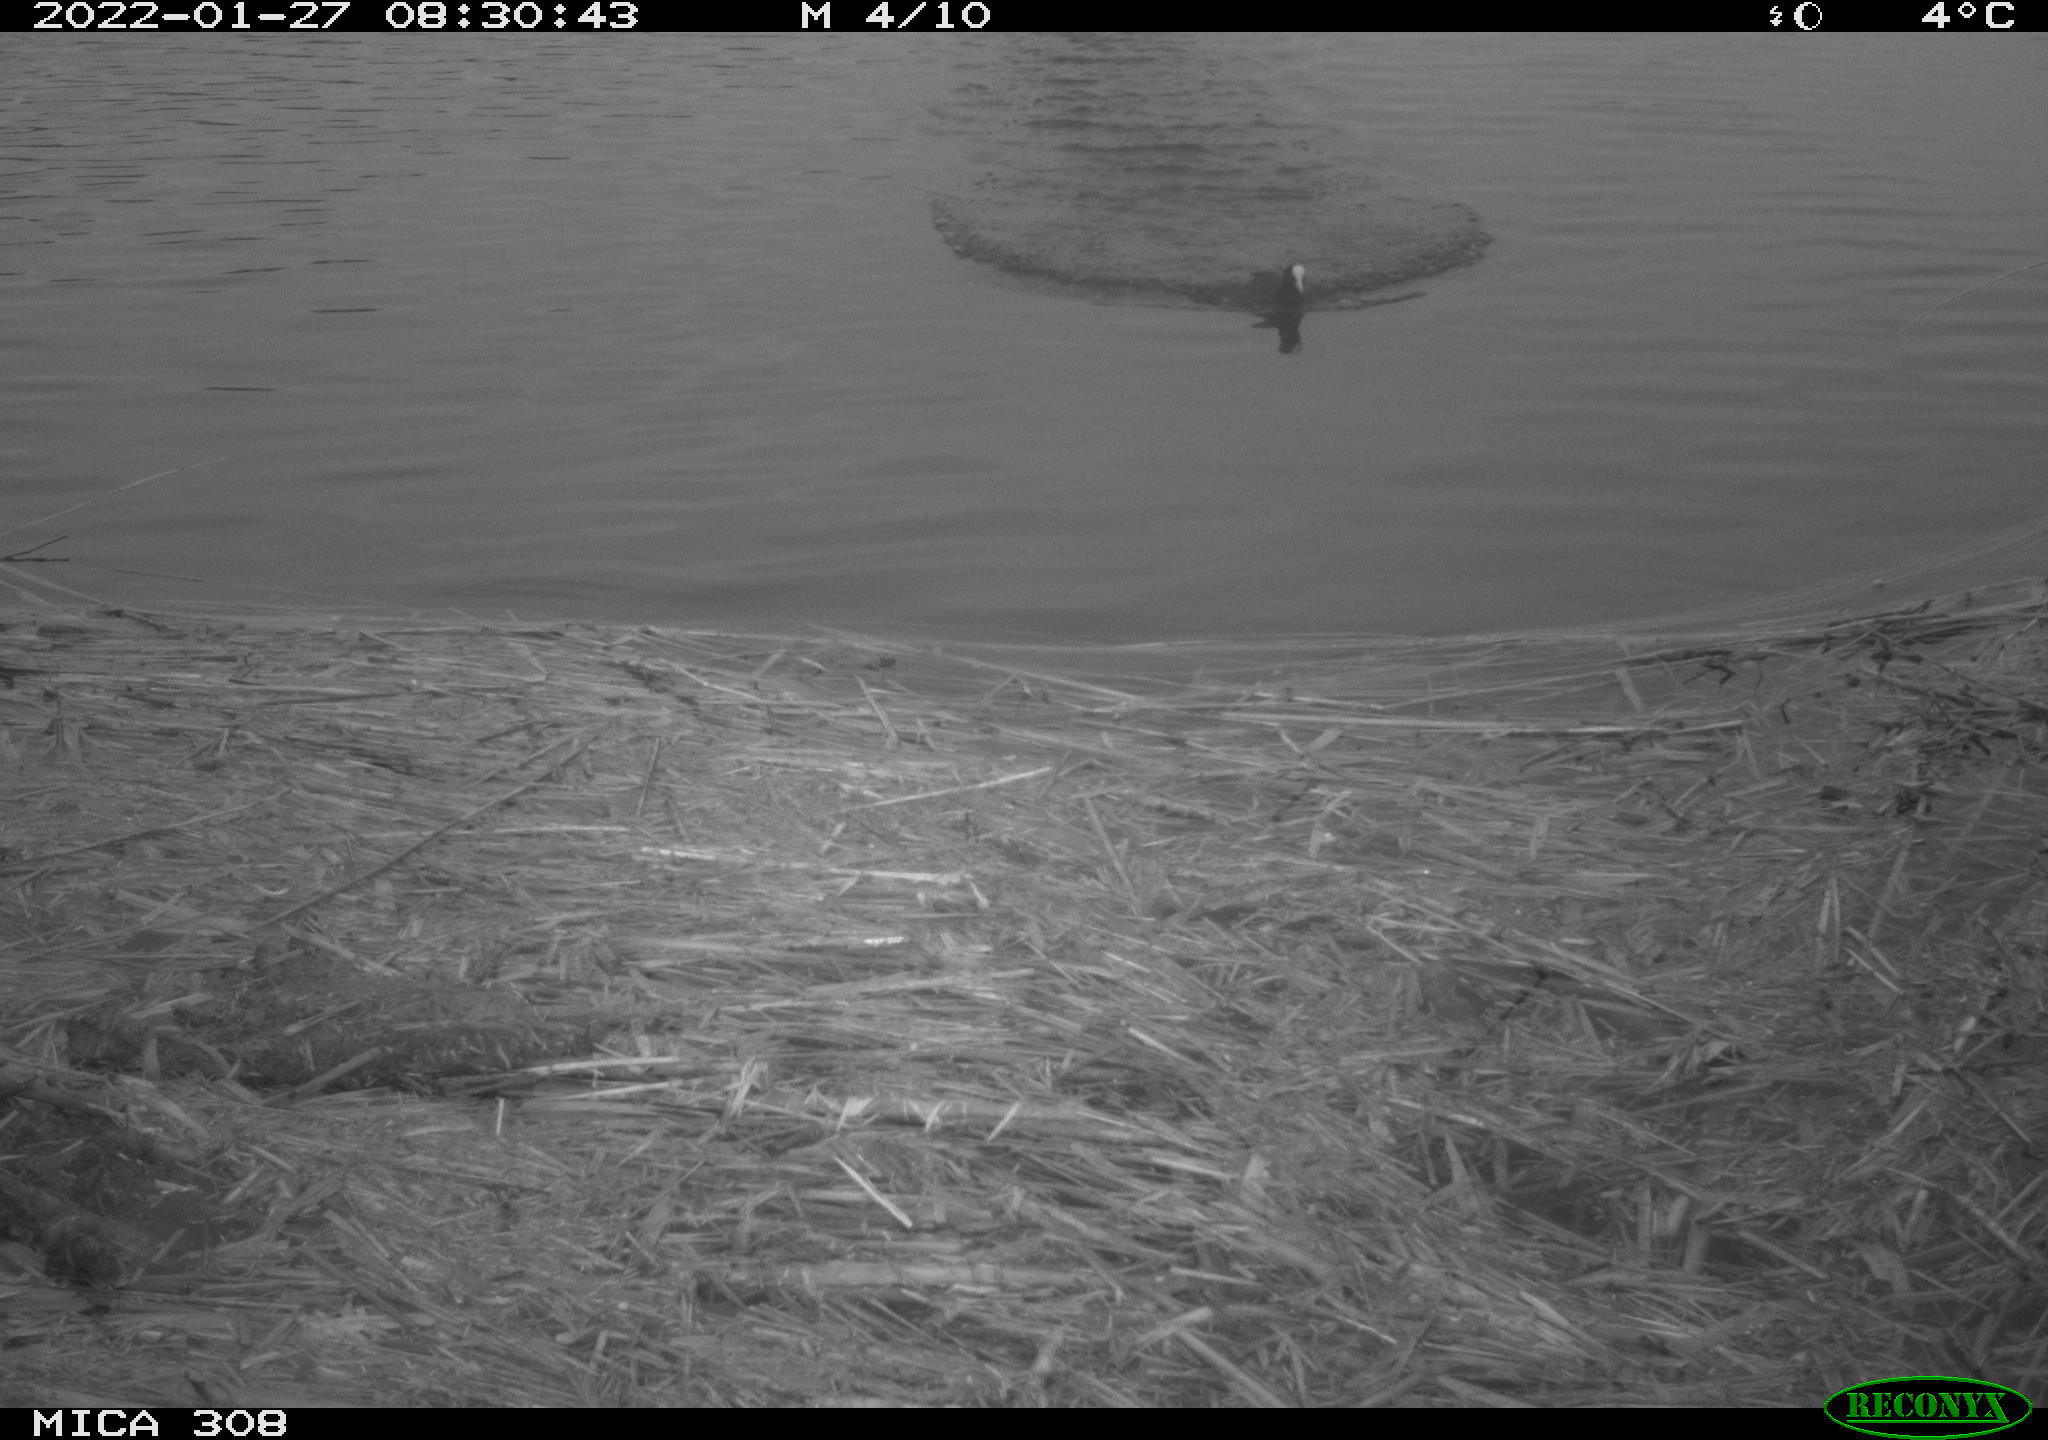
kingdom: Animalia
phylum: Chordata
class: Aves
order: Gruiformes
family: Rallidae
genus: Gallinula
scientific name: Gallinula chloropus
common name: Common moorhen
